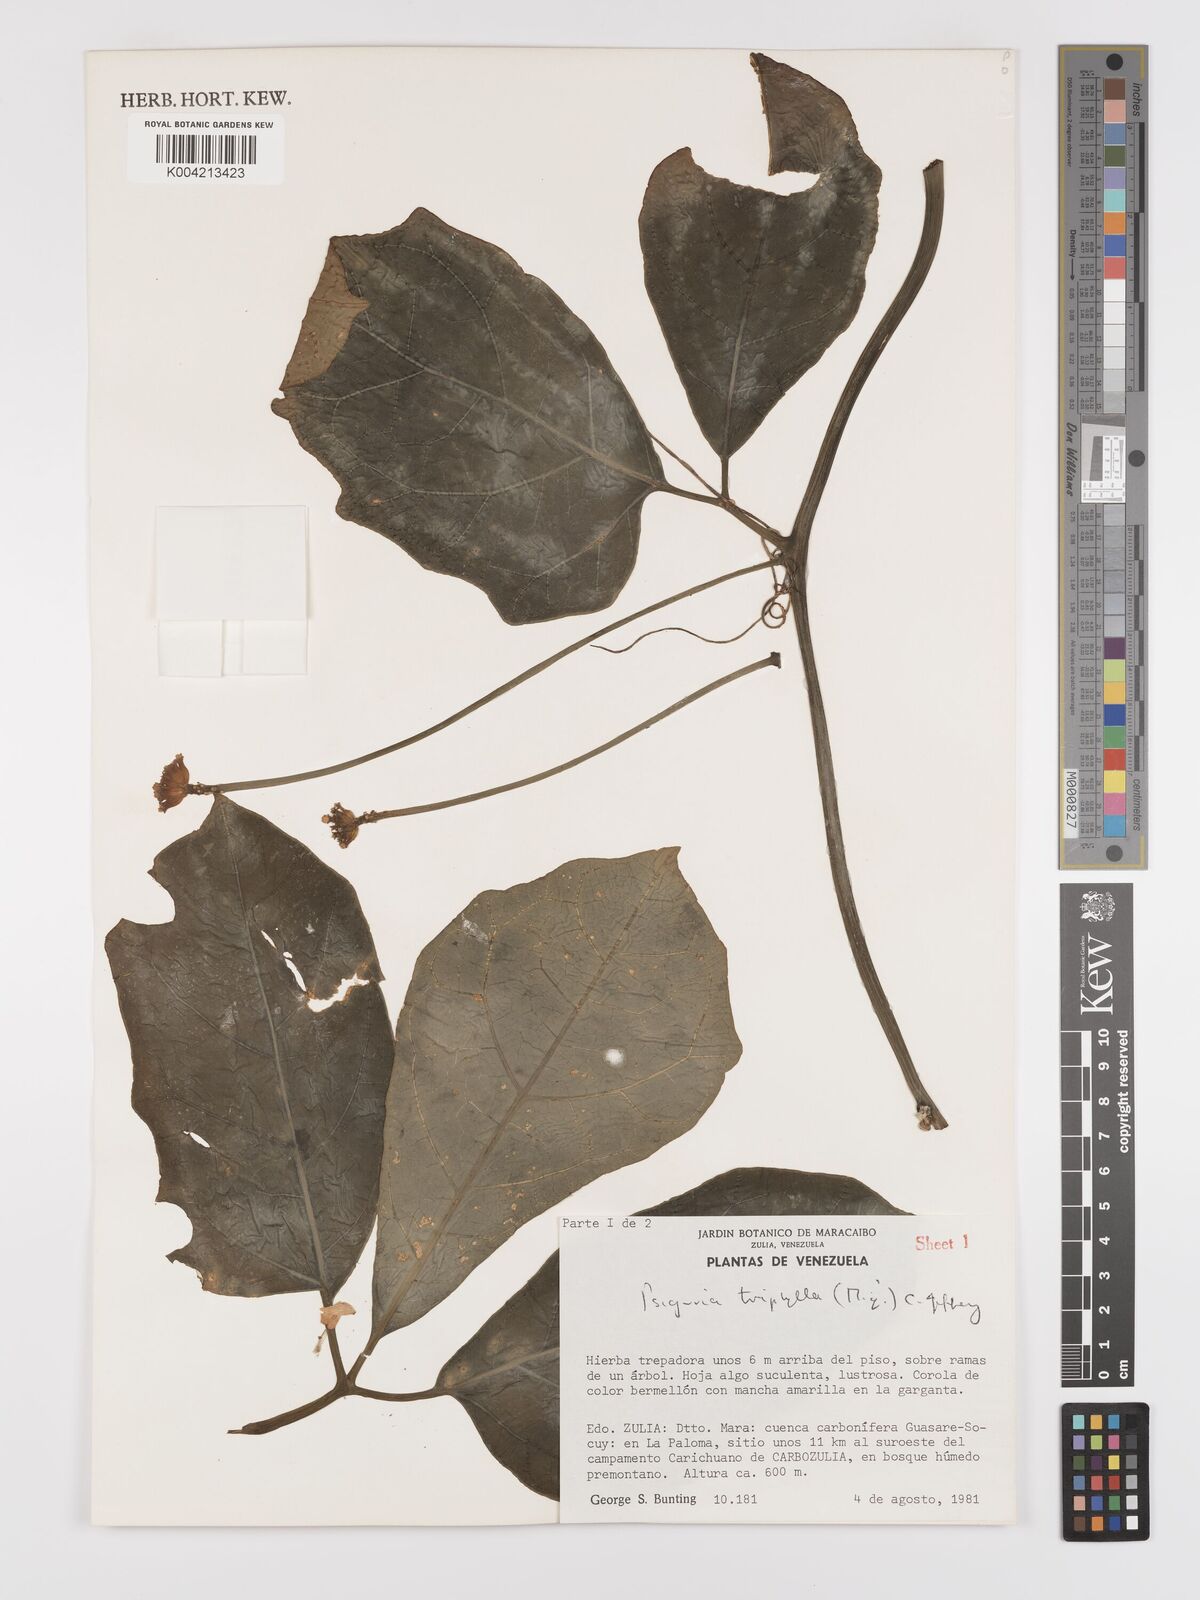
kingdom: Plantae
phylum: Tracheophyta
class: Magnoliopsida
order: Cucurbitales
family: Cucurbitaceae
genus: Psiguria
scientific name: Psiguria triphylla
